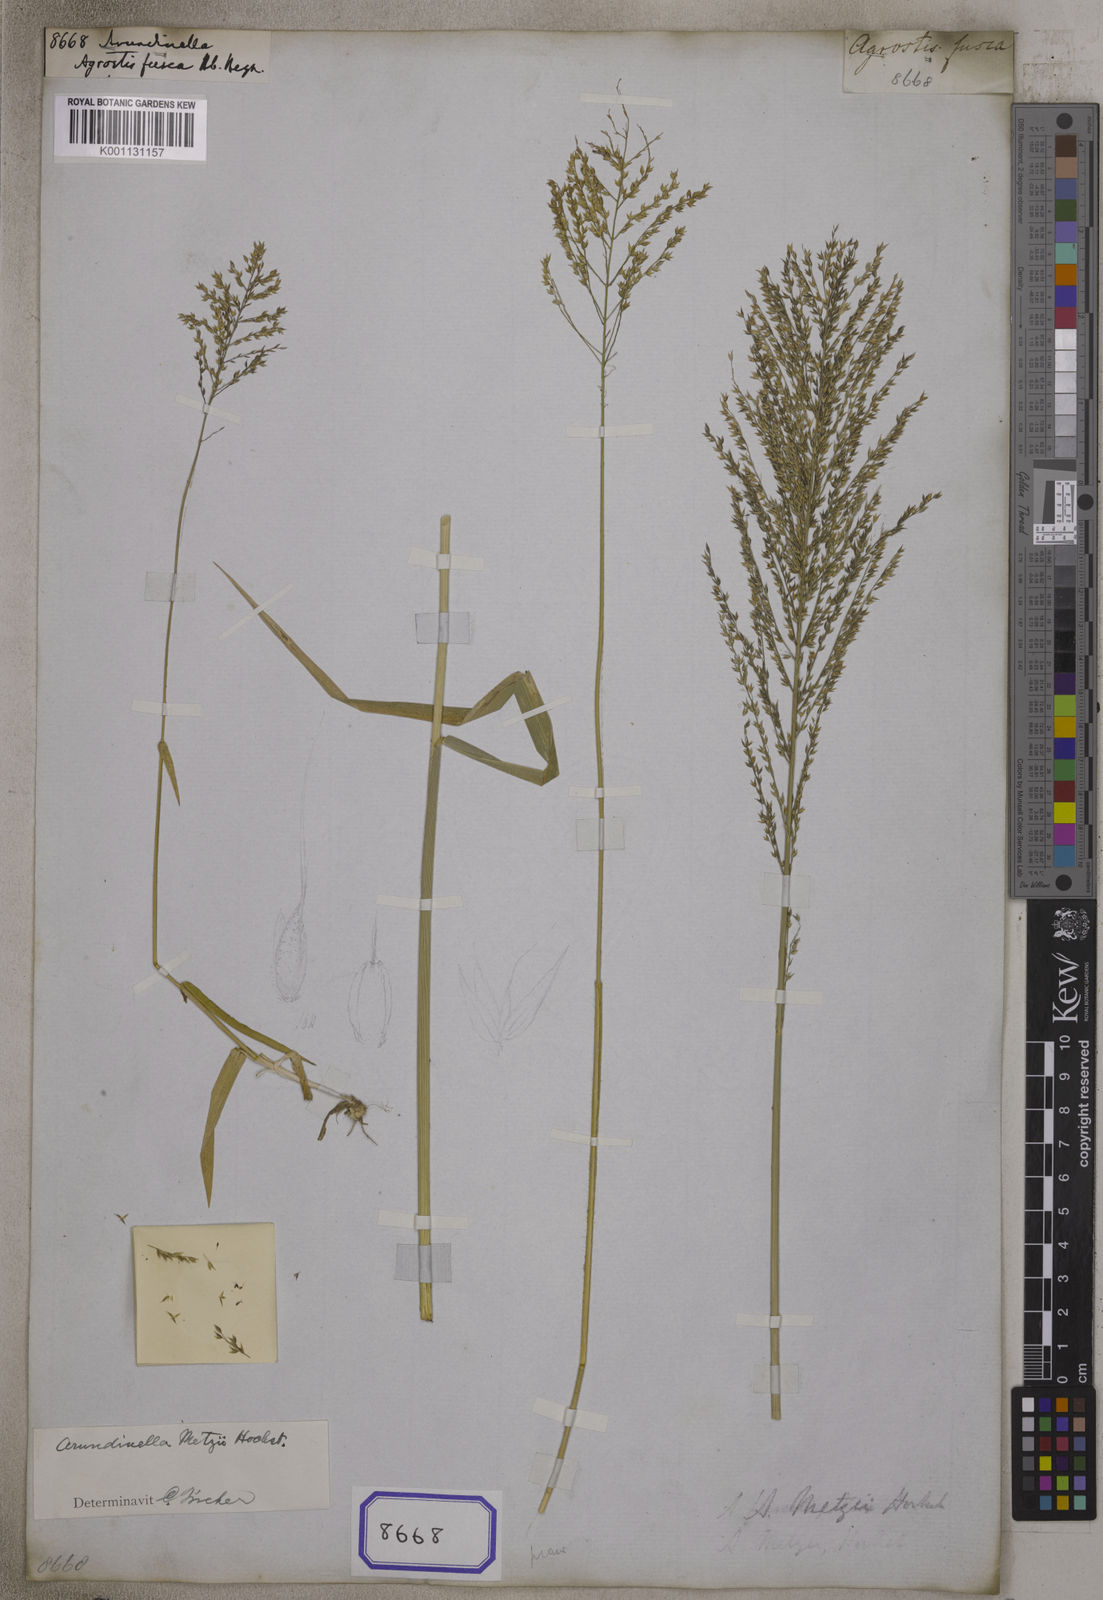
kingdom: Plantae
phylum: Tracheophyta
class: Liliopsida
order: Poales
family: Poaceae
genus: Arundinella
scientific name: Arundinella
